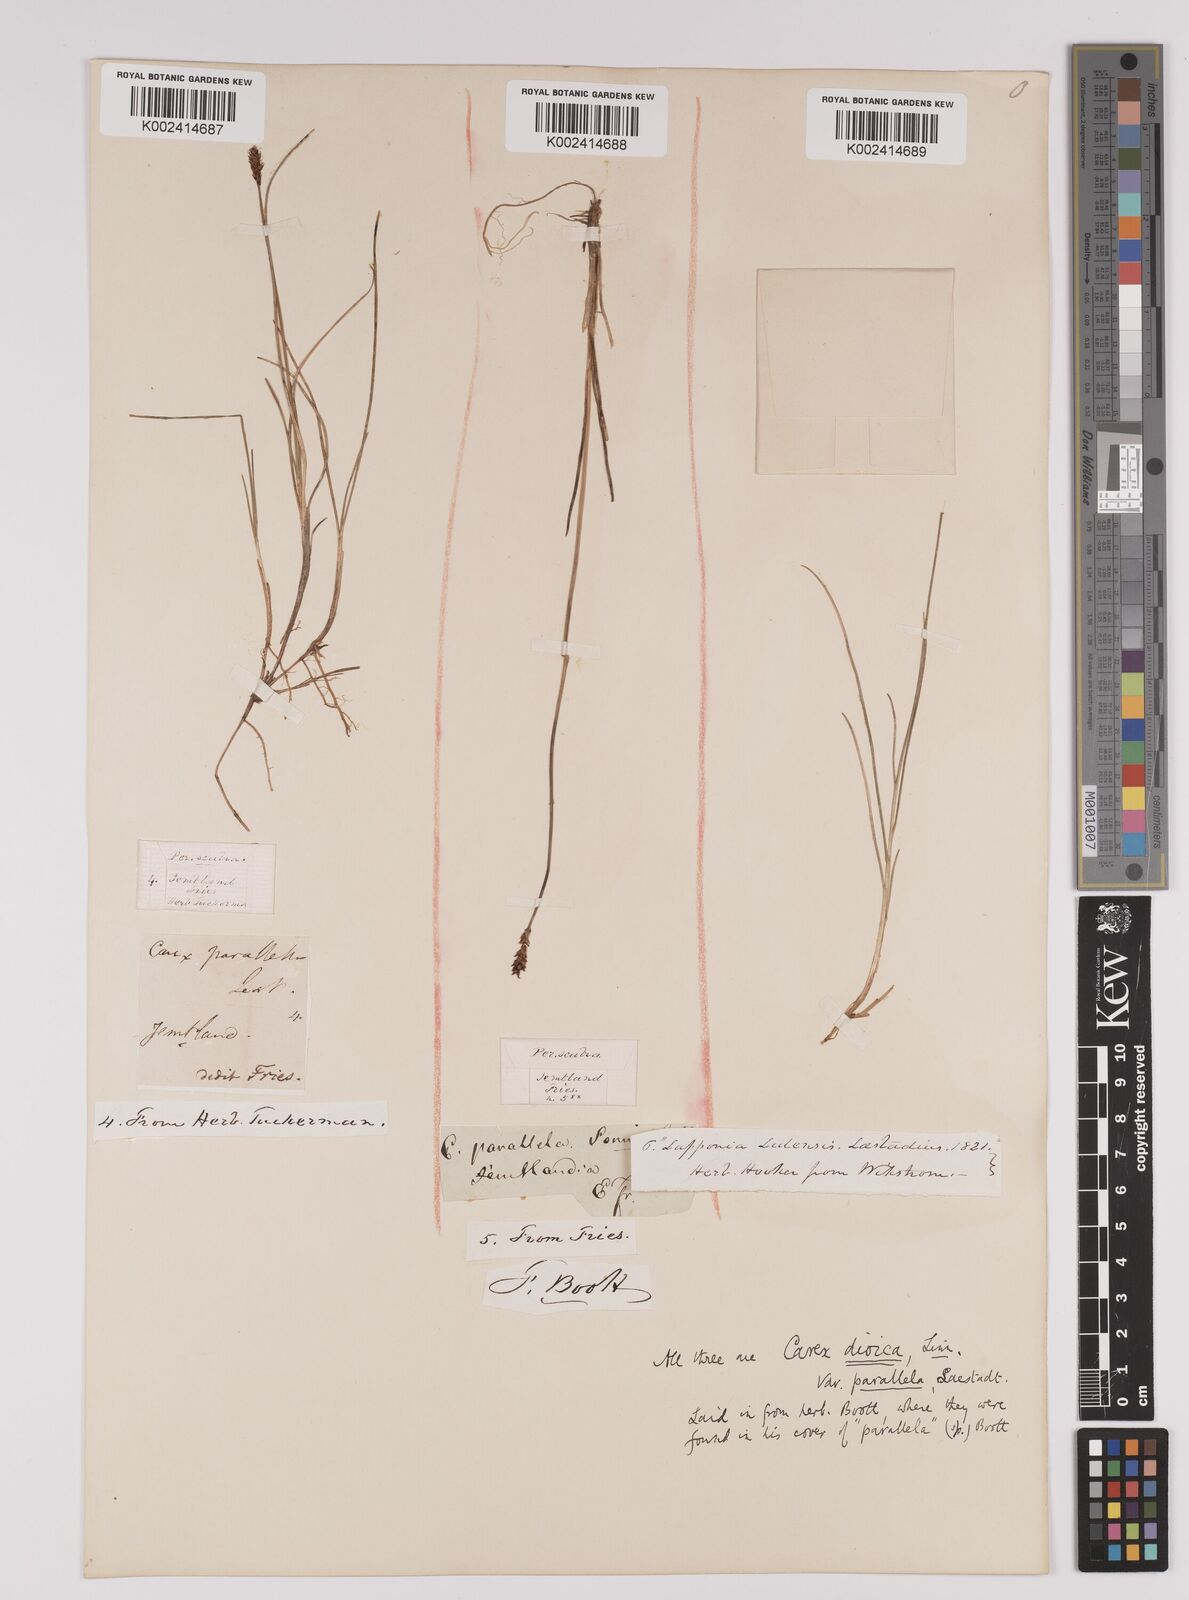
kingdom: Plantae
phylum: Tracheophyta
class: Liliopsida
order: Poales
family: Cyperaceae
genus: Carex
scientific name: Carex parallela
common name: Parallel sedge
